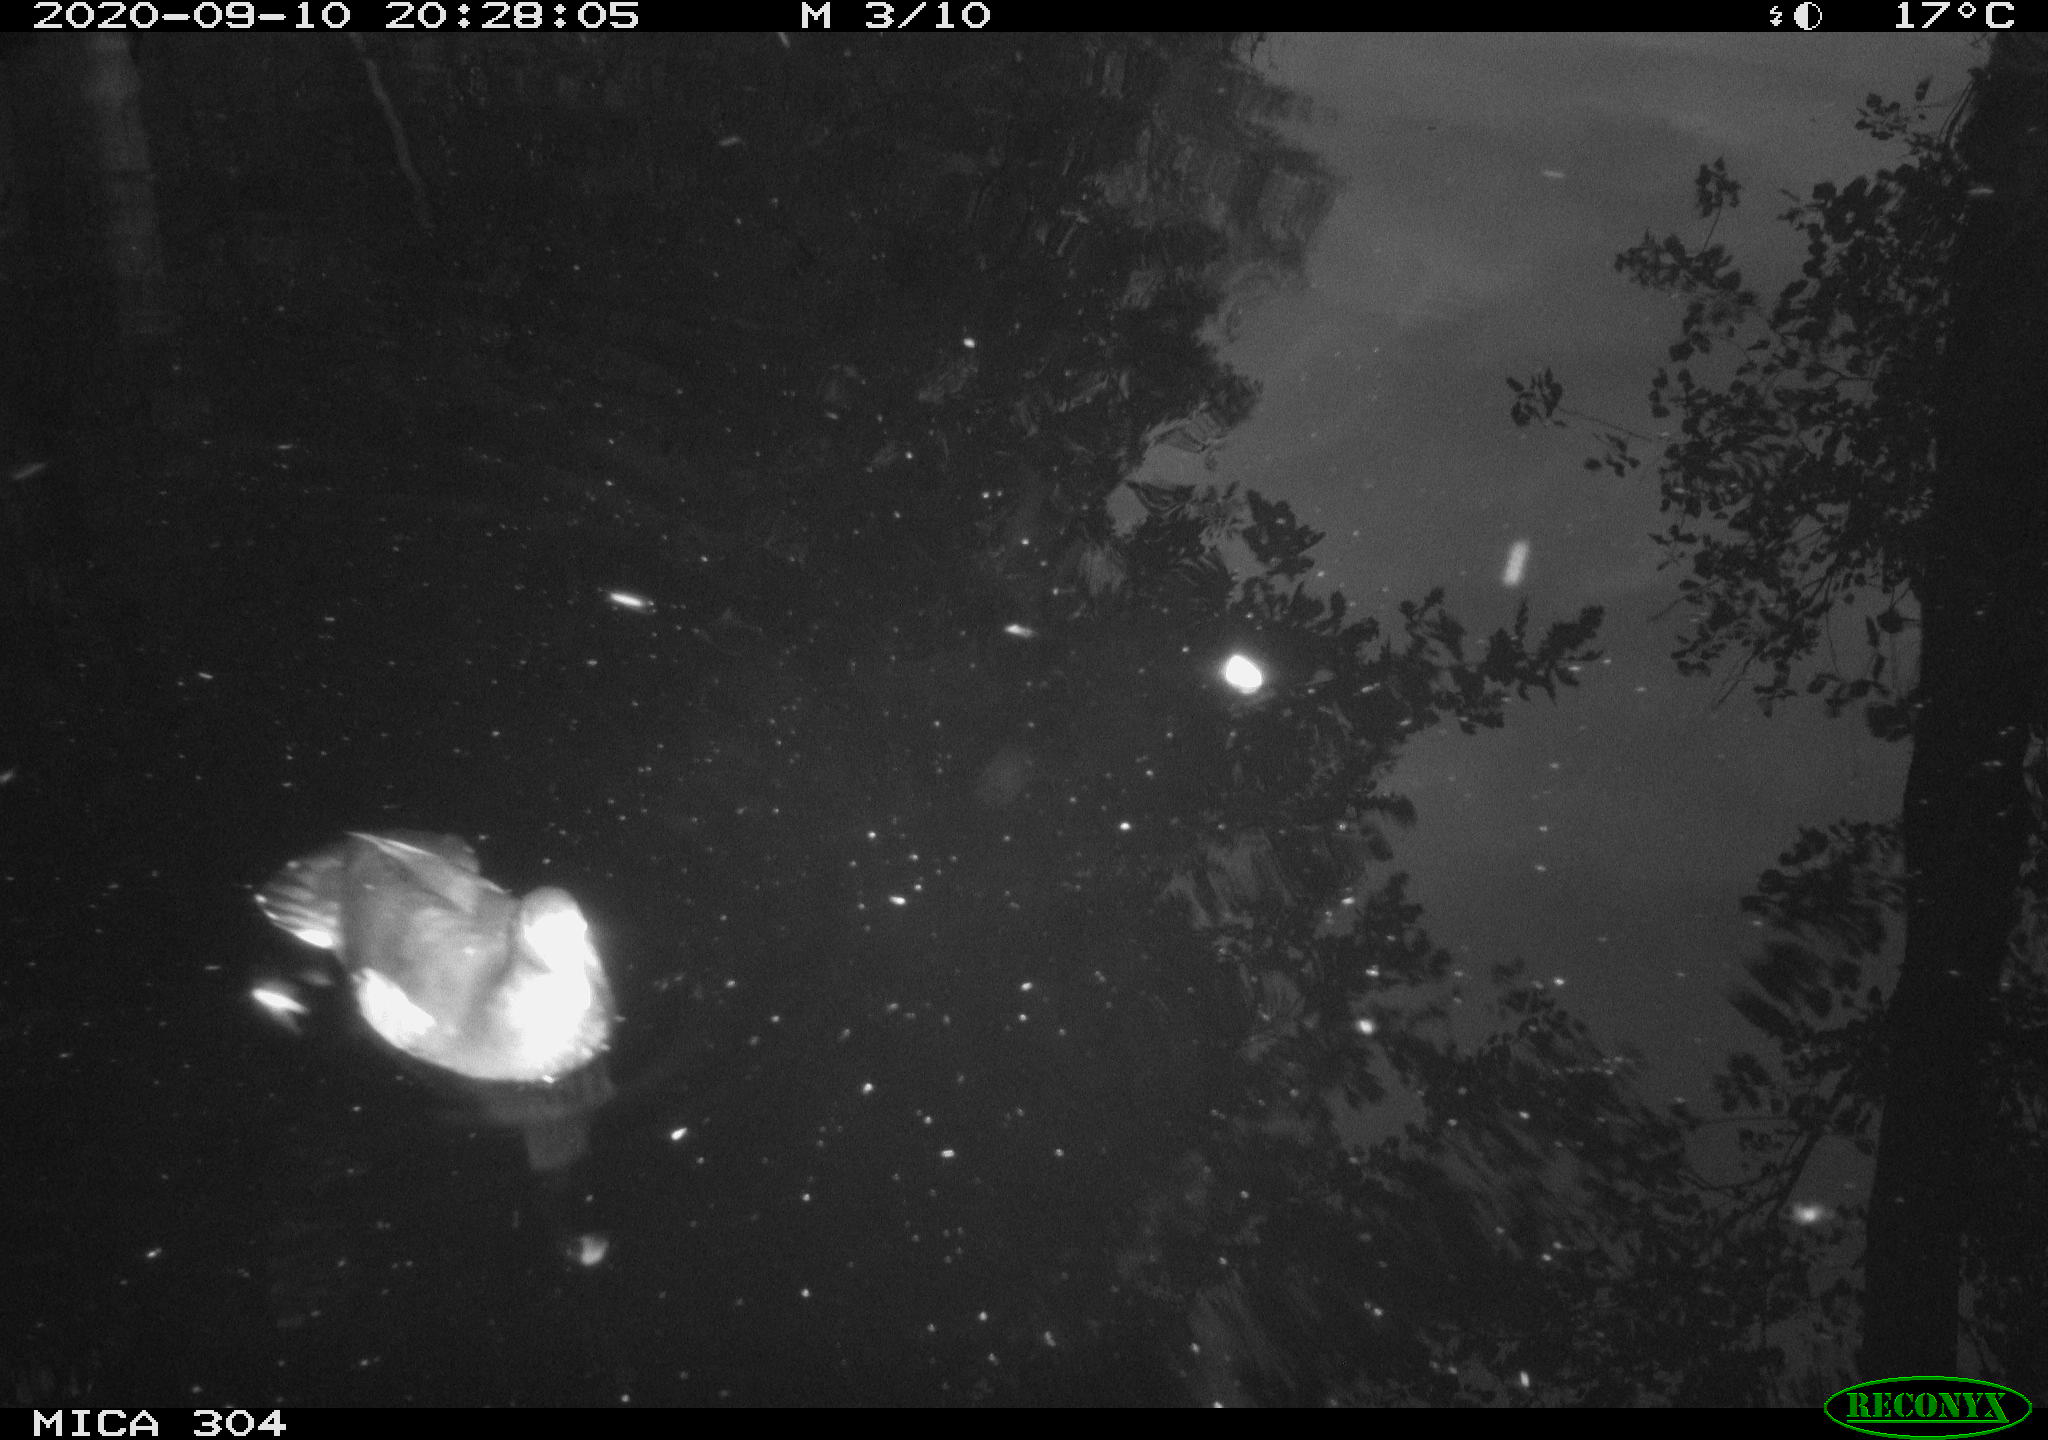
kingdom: Animalia
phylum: Chordata
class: Aves
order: Gruiformes
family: Rallidae
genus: Gallinula
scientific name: Gallinula chloropus
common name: Common moorhen
